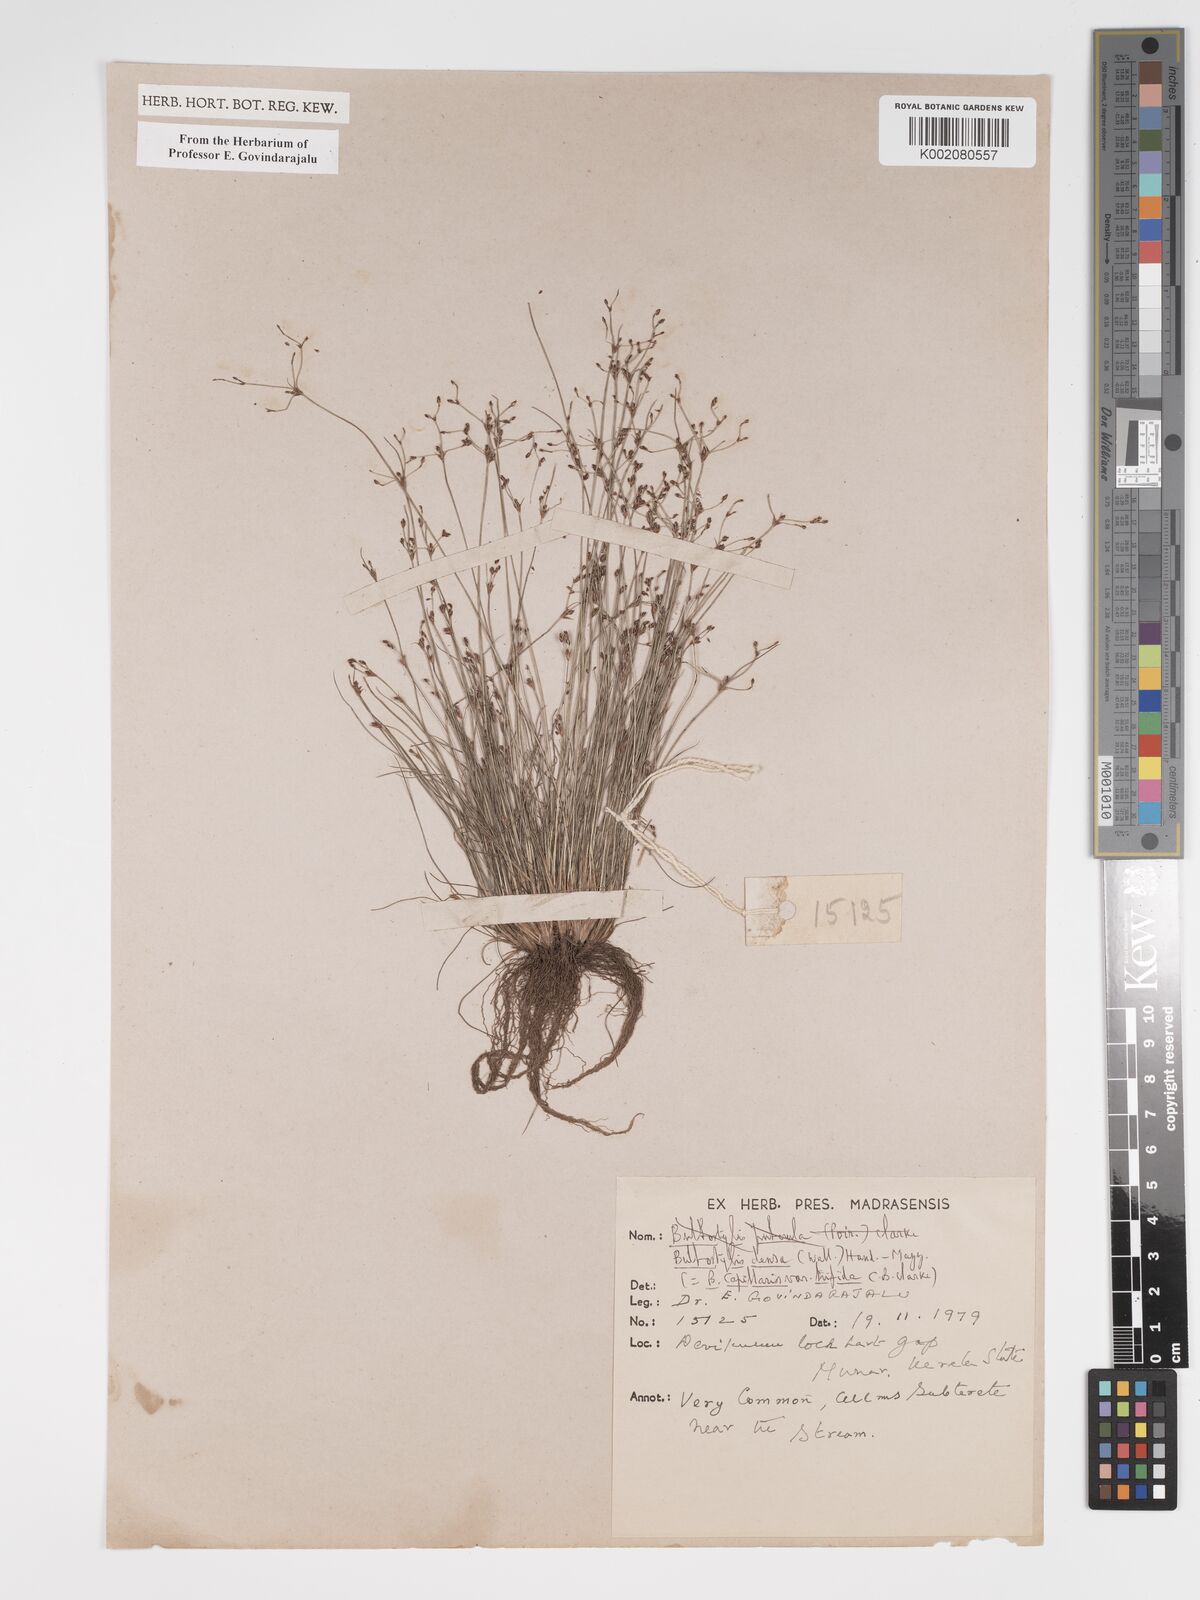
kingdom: Plantae
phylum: Tracheophyta
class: Liliopsida
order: Poales
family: Cyperaceae
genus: Bulbostylis
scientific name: Bulbostylis densa
